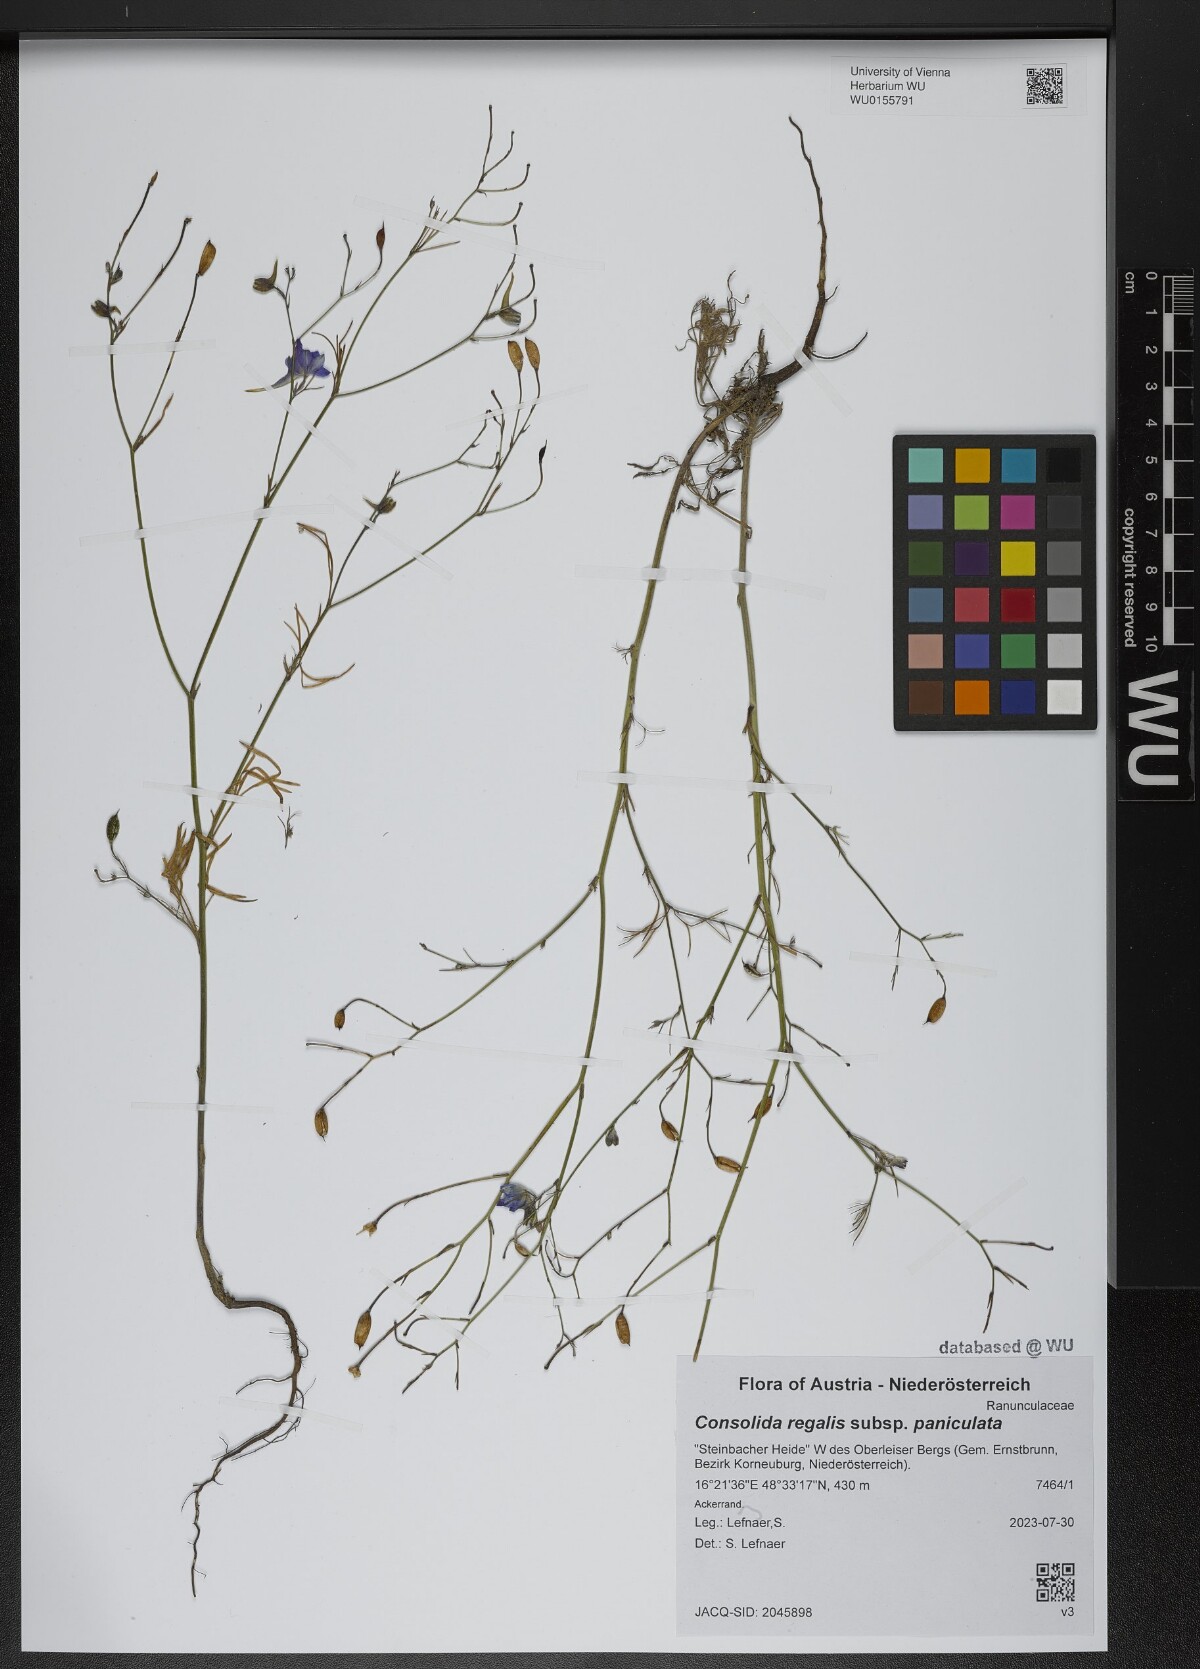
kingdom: Plantae
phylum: Tracheophyta
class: Magnoliopsida
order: Ranunculales
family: Ranunculaceae
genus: Delphinium
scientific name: Delphinium consolida
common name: Branching larkspur
